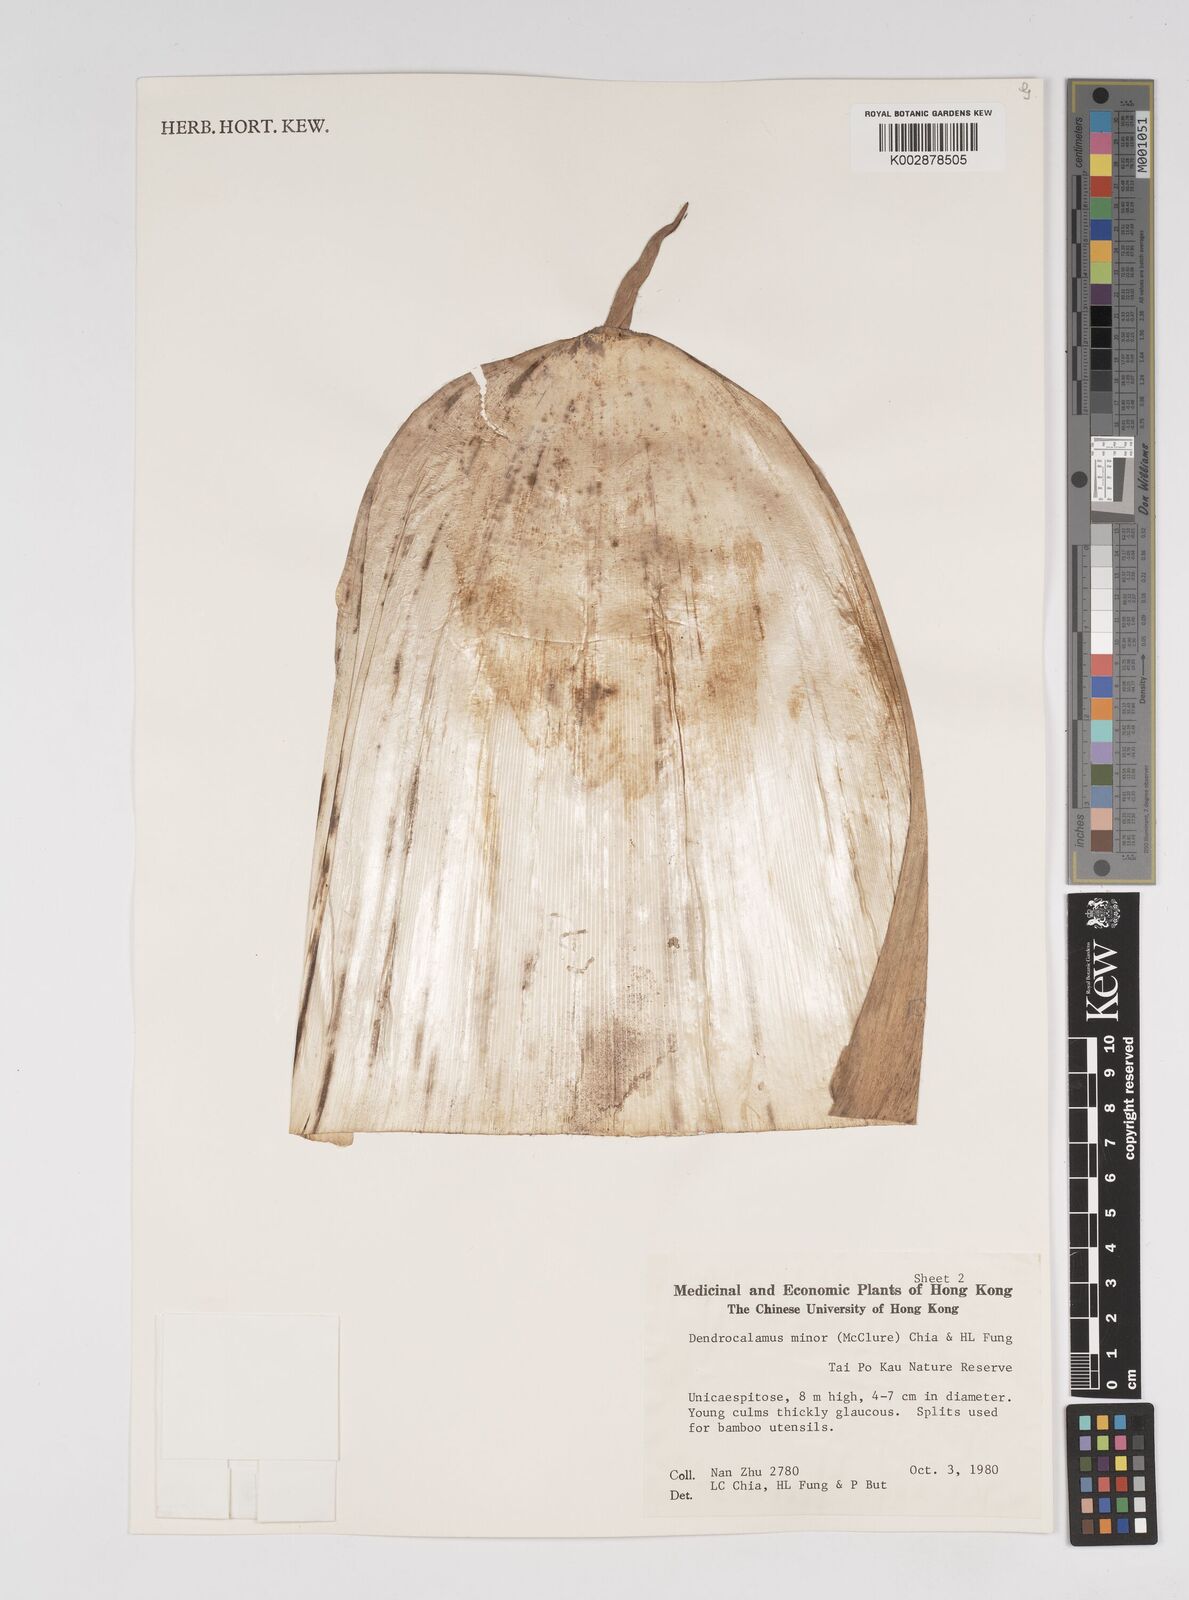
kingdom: Plantae
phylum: Tracheophyta
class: Liliopsida
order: Poales
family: Poaceae
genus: Dendrocalamus
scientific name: Dendrocalamus minor
